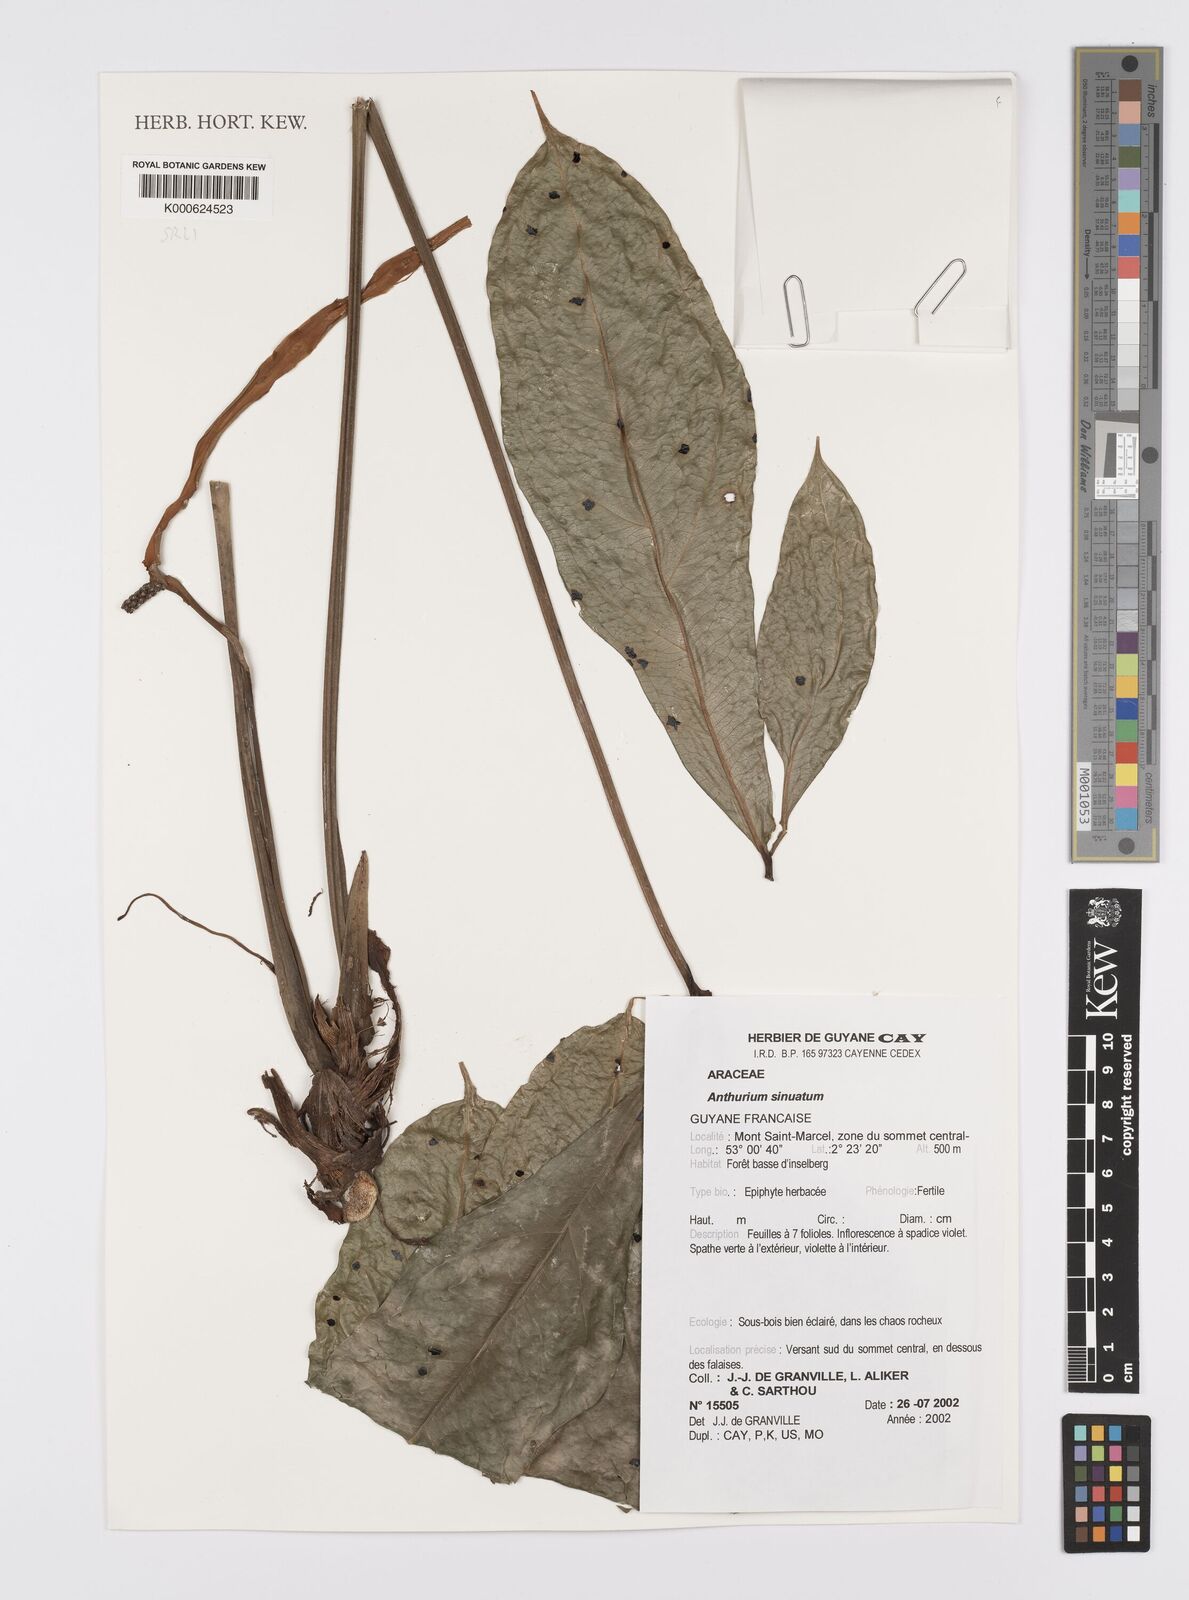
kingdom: Plantae
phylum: Tracheophyta
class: Liliopsida
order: Alismatales
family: Araceae
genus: Anthurium
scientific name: Anthurium sinuatum
